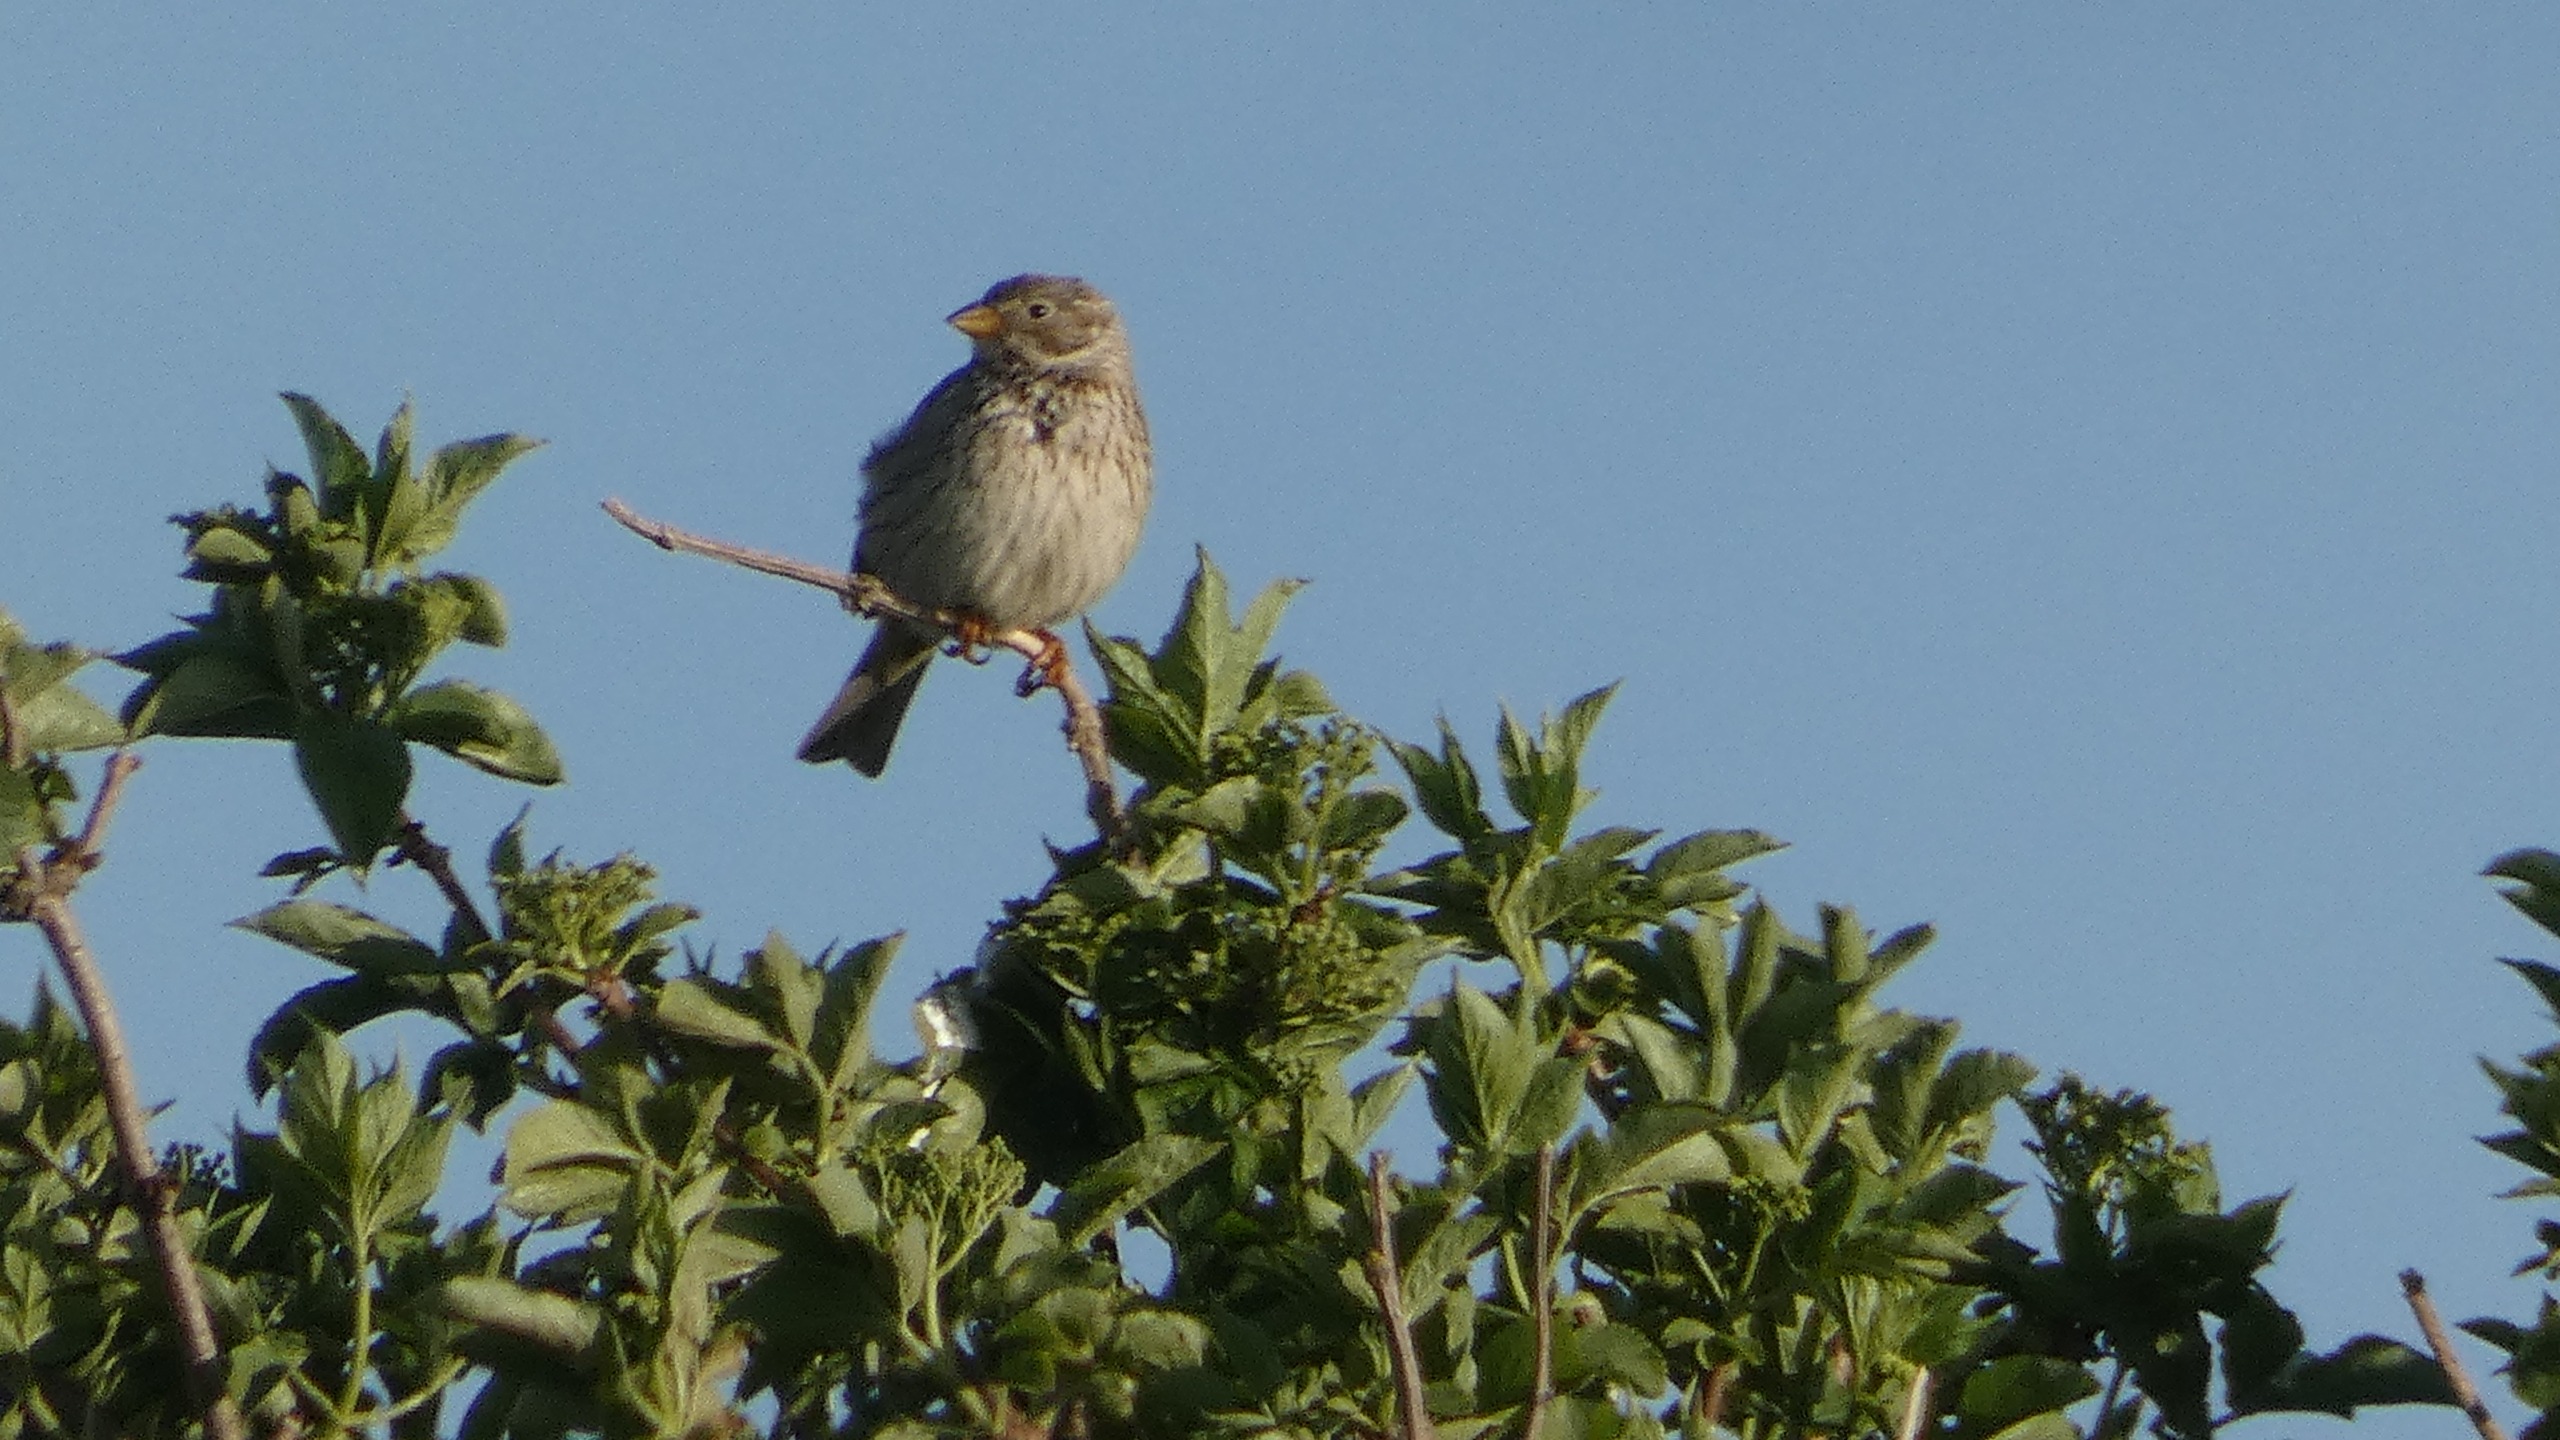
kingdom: Animalia
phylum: Chordata
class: Aves
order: Passeriformes
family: Emberizidae
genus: Emberiza
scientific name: Emberiza calandra
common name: Bomlærke
